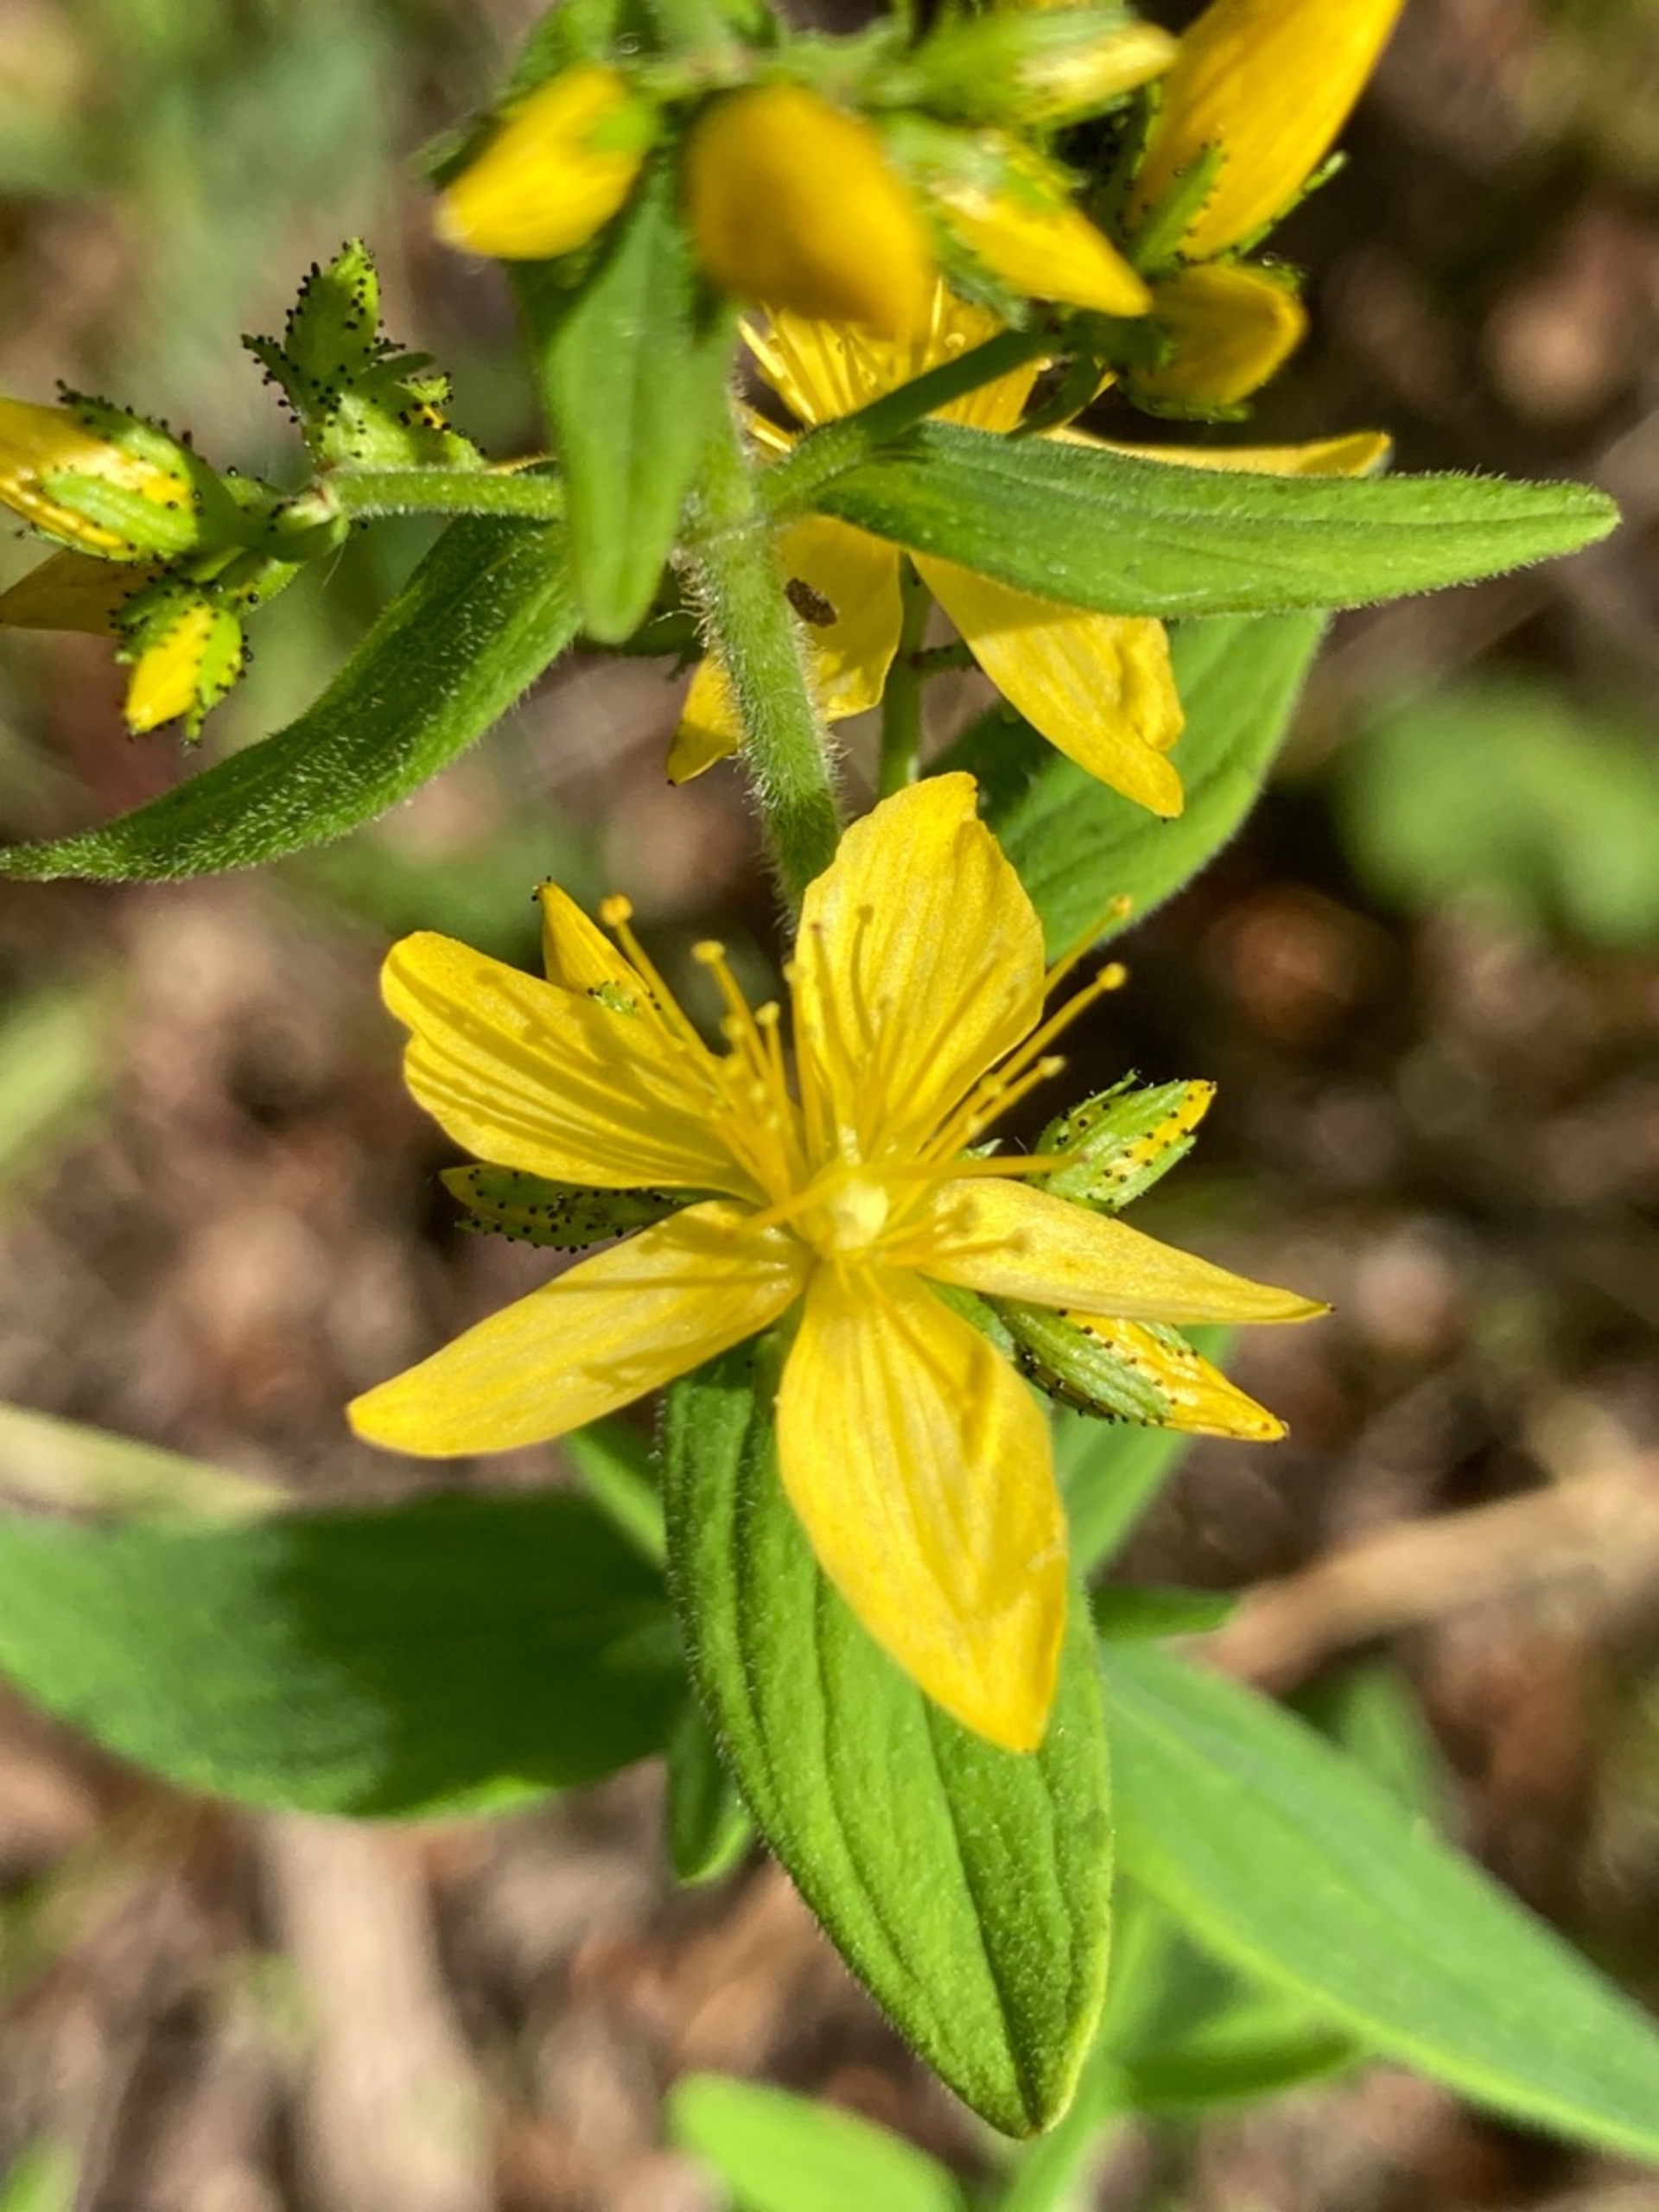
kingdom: Plantae
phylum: Tracheophyta
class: Magnoliopsida
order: Malpighiales
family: Hypericaceae
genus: Hypericum
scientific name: Hypericum hirsutum
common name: Lådden perikon
